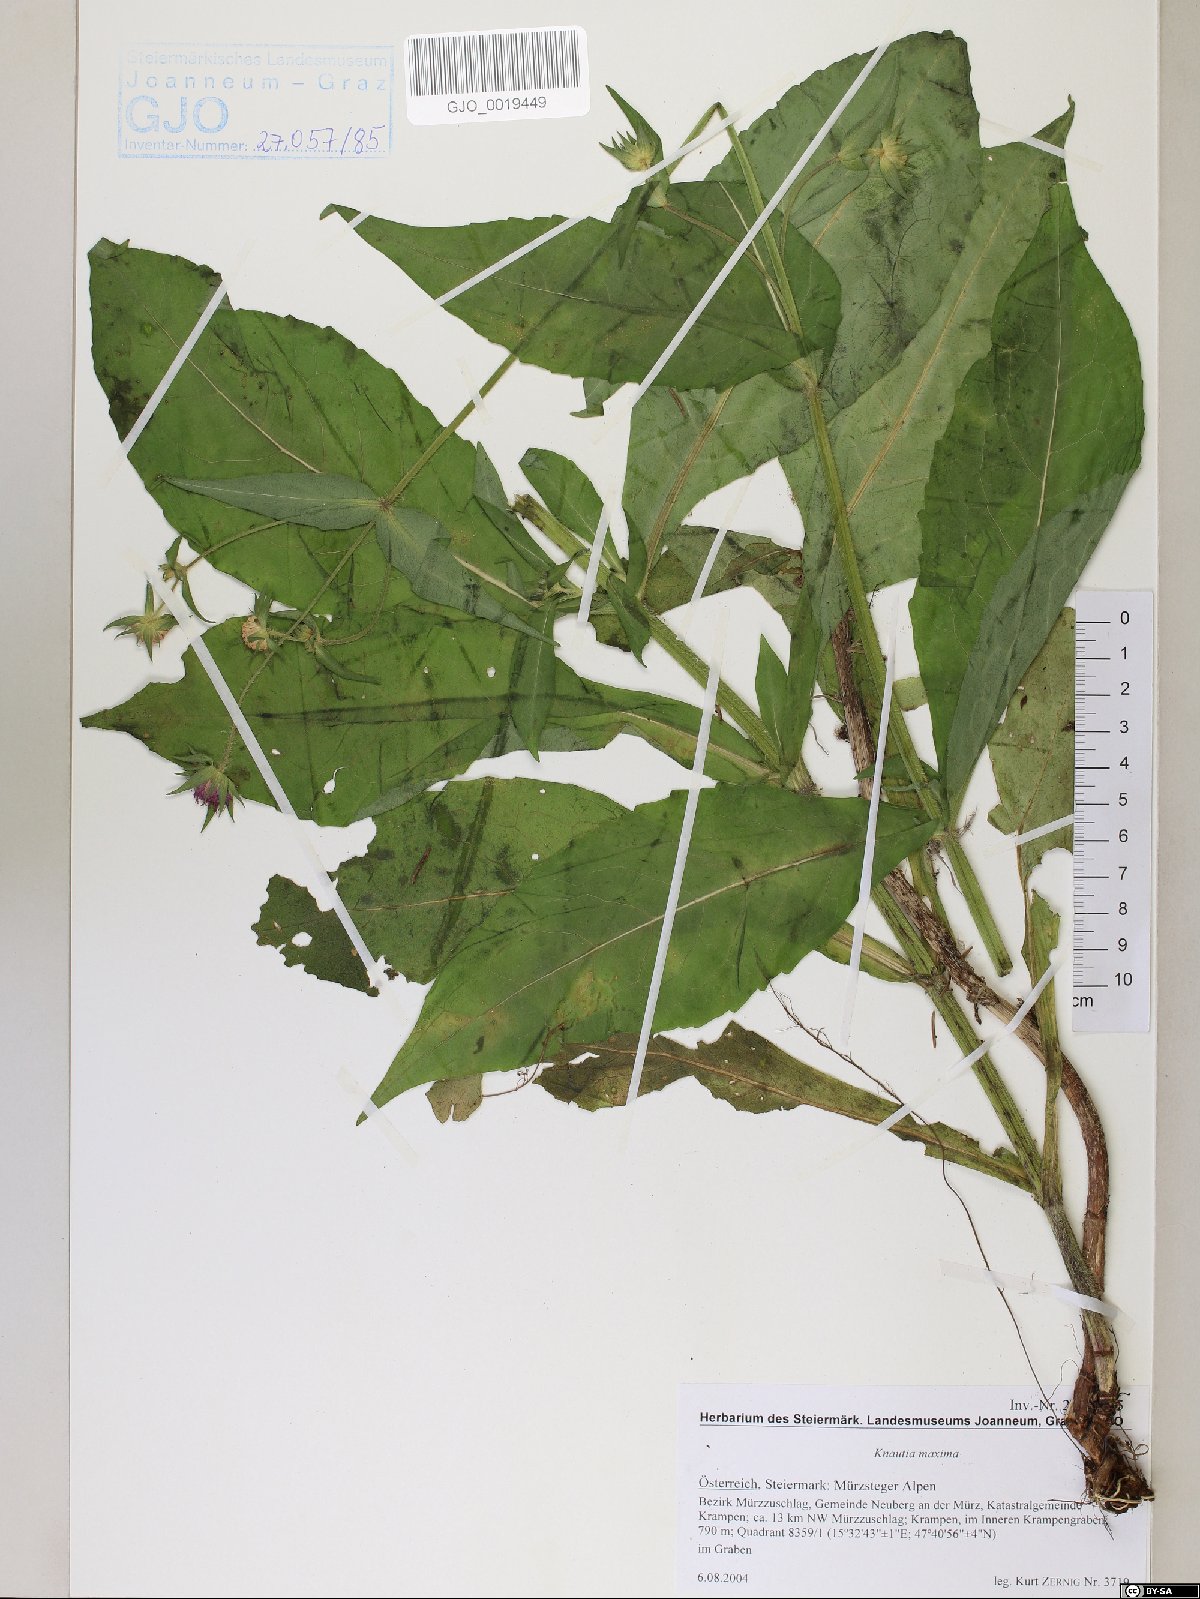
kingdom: Plantae
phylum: Tracheophyta
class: Magnoliopsida
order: Dipsacales
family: Caprifoliaceae
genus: Knautia
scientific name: Knautia dipsacifolia
